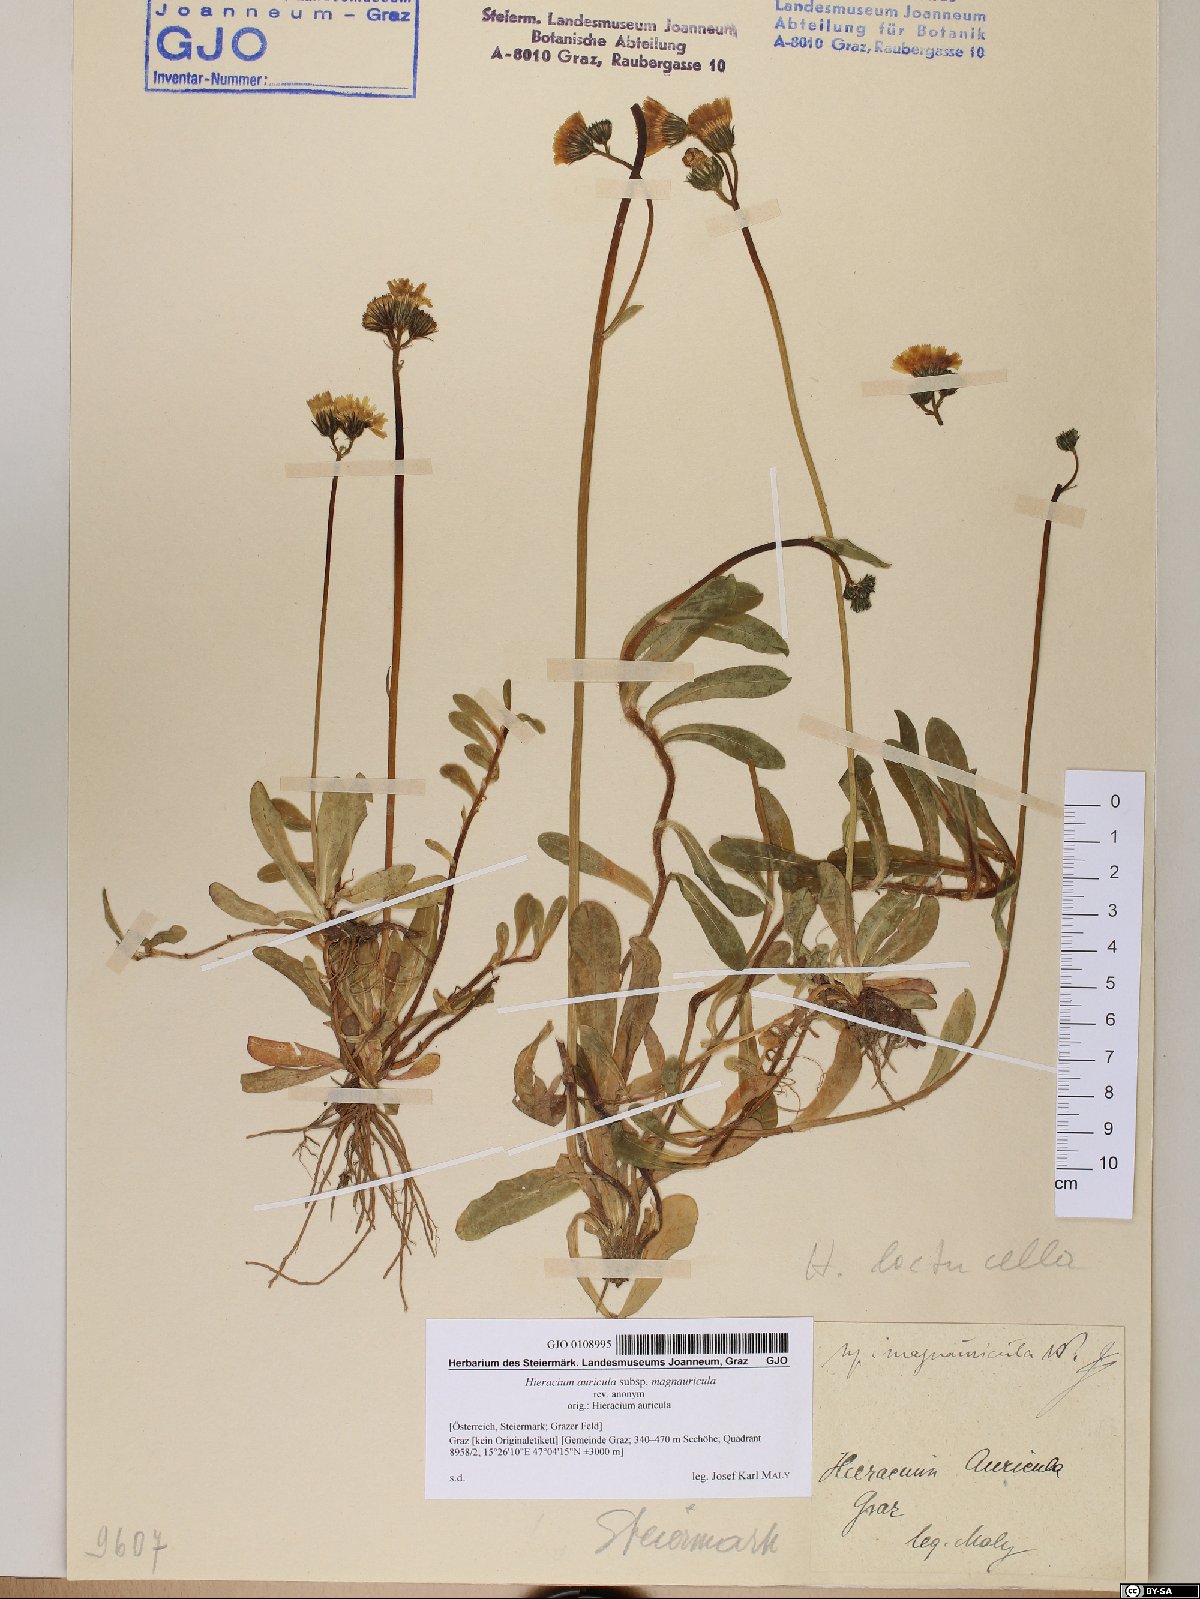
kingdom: Plantae
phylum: Tracheophyta
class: Magnoliopsida
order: Asterales
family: Asteraceae
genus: Pilosella
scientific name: Pilosella lactucella
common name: Glaucous fox-and-cubs
